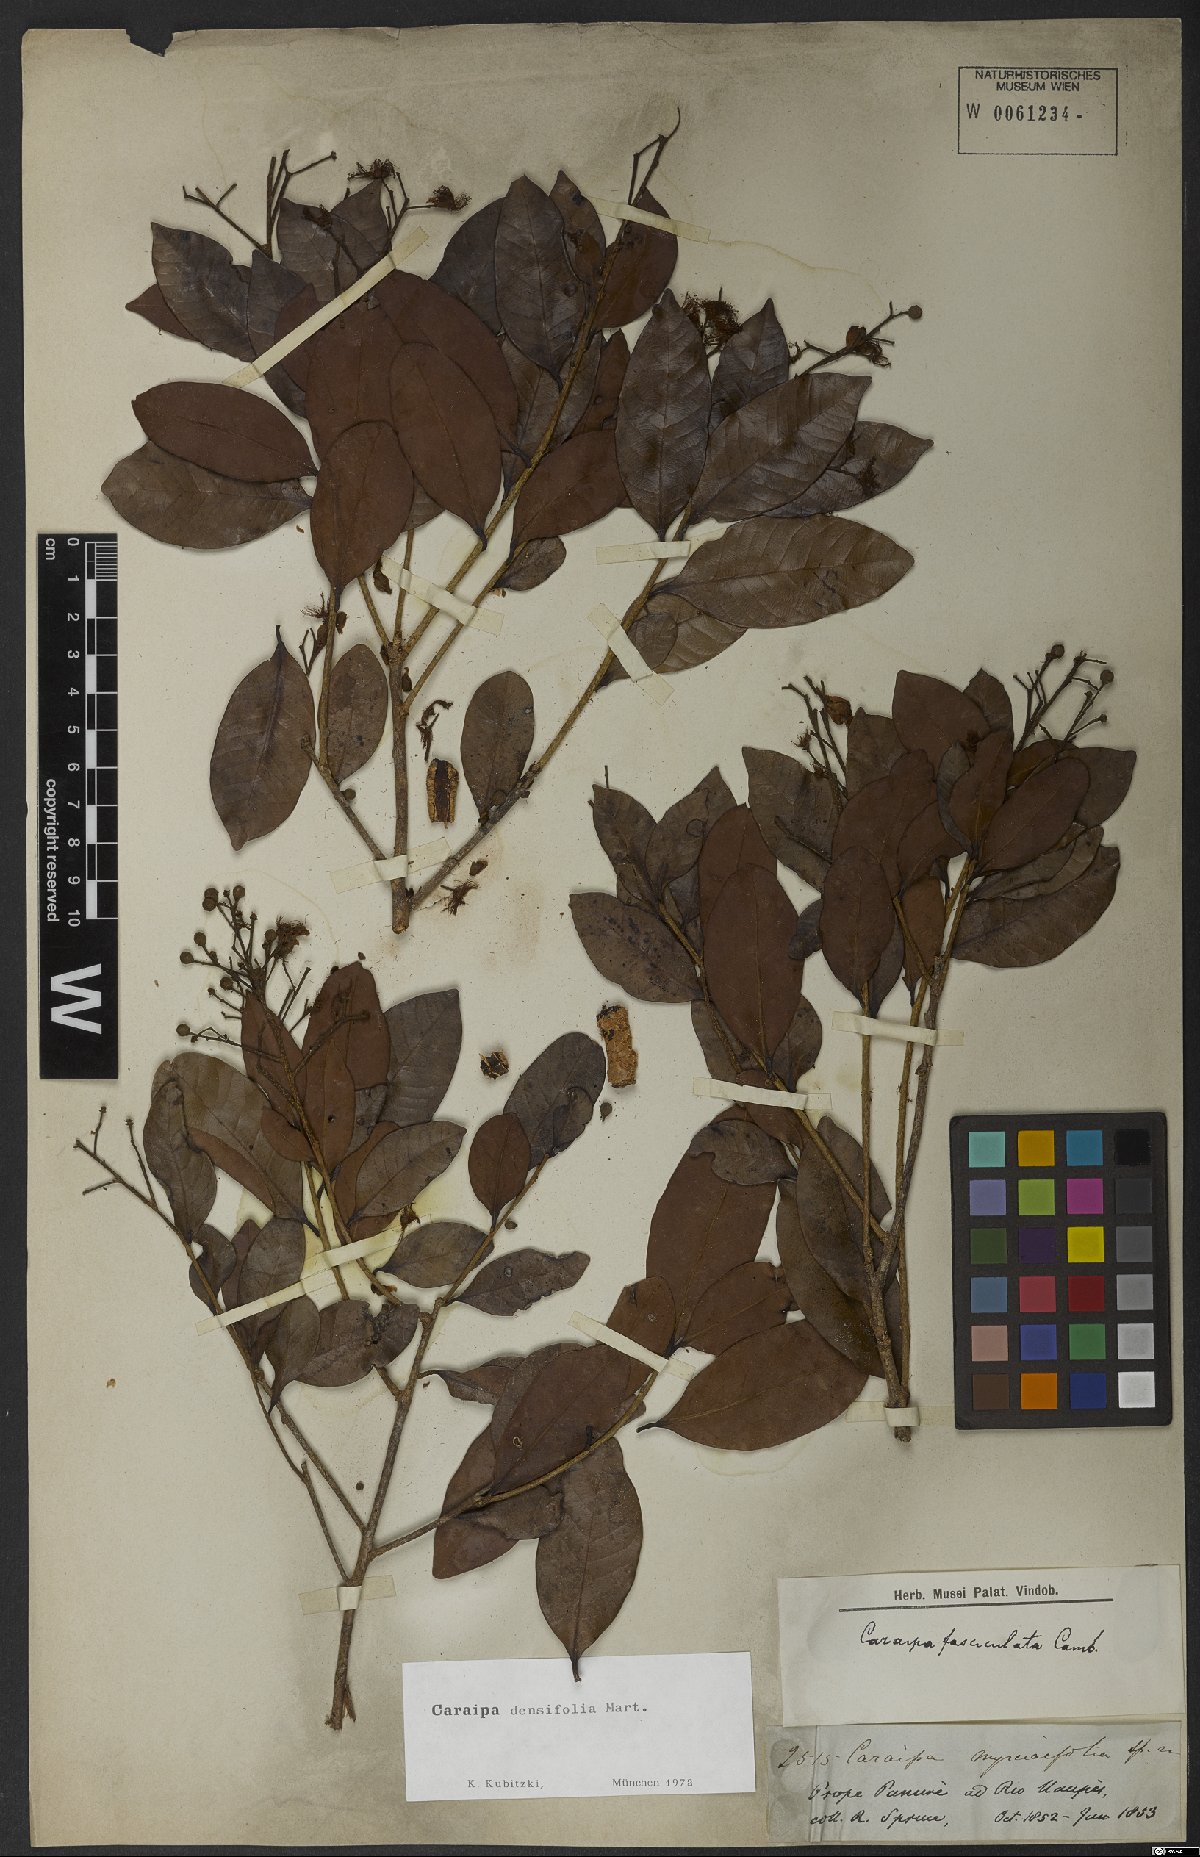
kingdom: Plantae
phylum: Tracheophyta
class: Magnoliopsida
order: Malpighiales
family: Calophyllaceae
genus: Caraipa
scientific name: Caraipa densifolia
